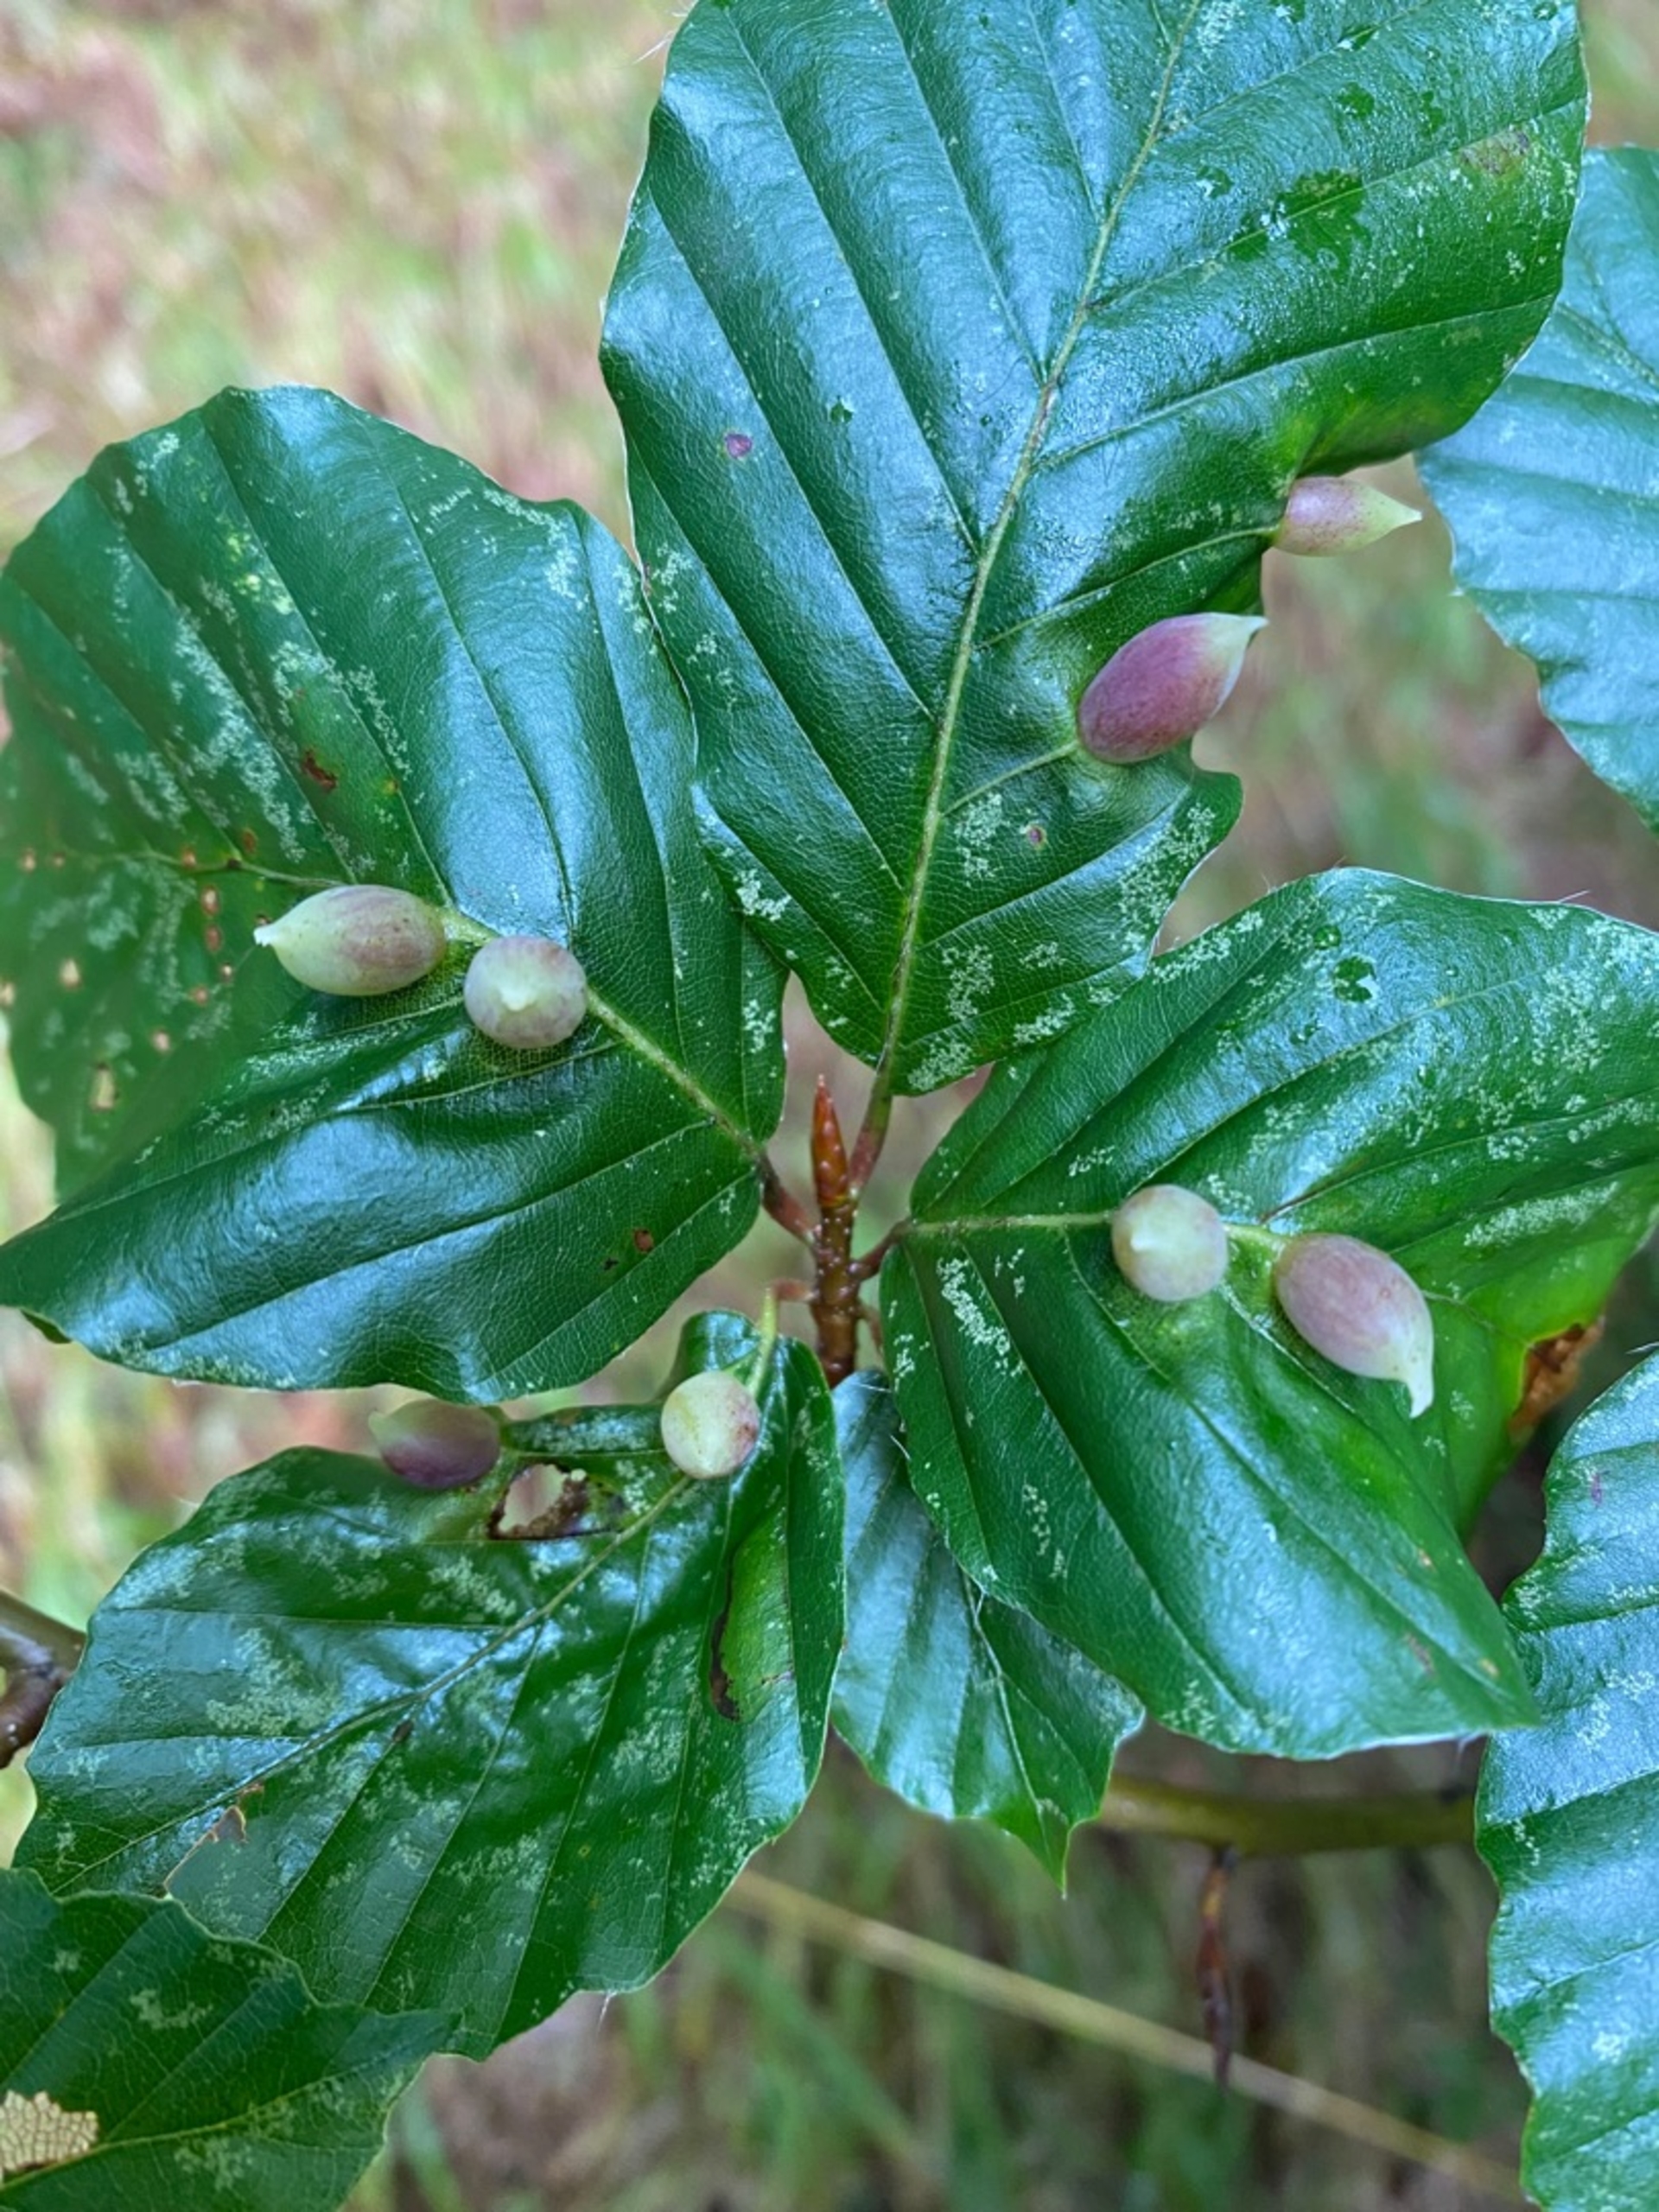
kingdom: Animalia
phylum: Arthropoda
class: Insecta
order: Diptera
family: Cecidomyiidae
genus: Mikiola
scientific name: Mikiola fagi
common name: Bøgegalmyg
